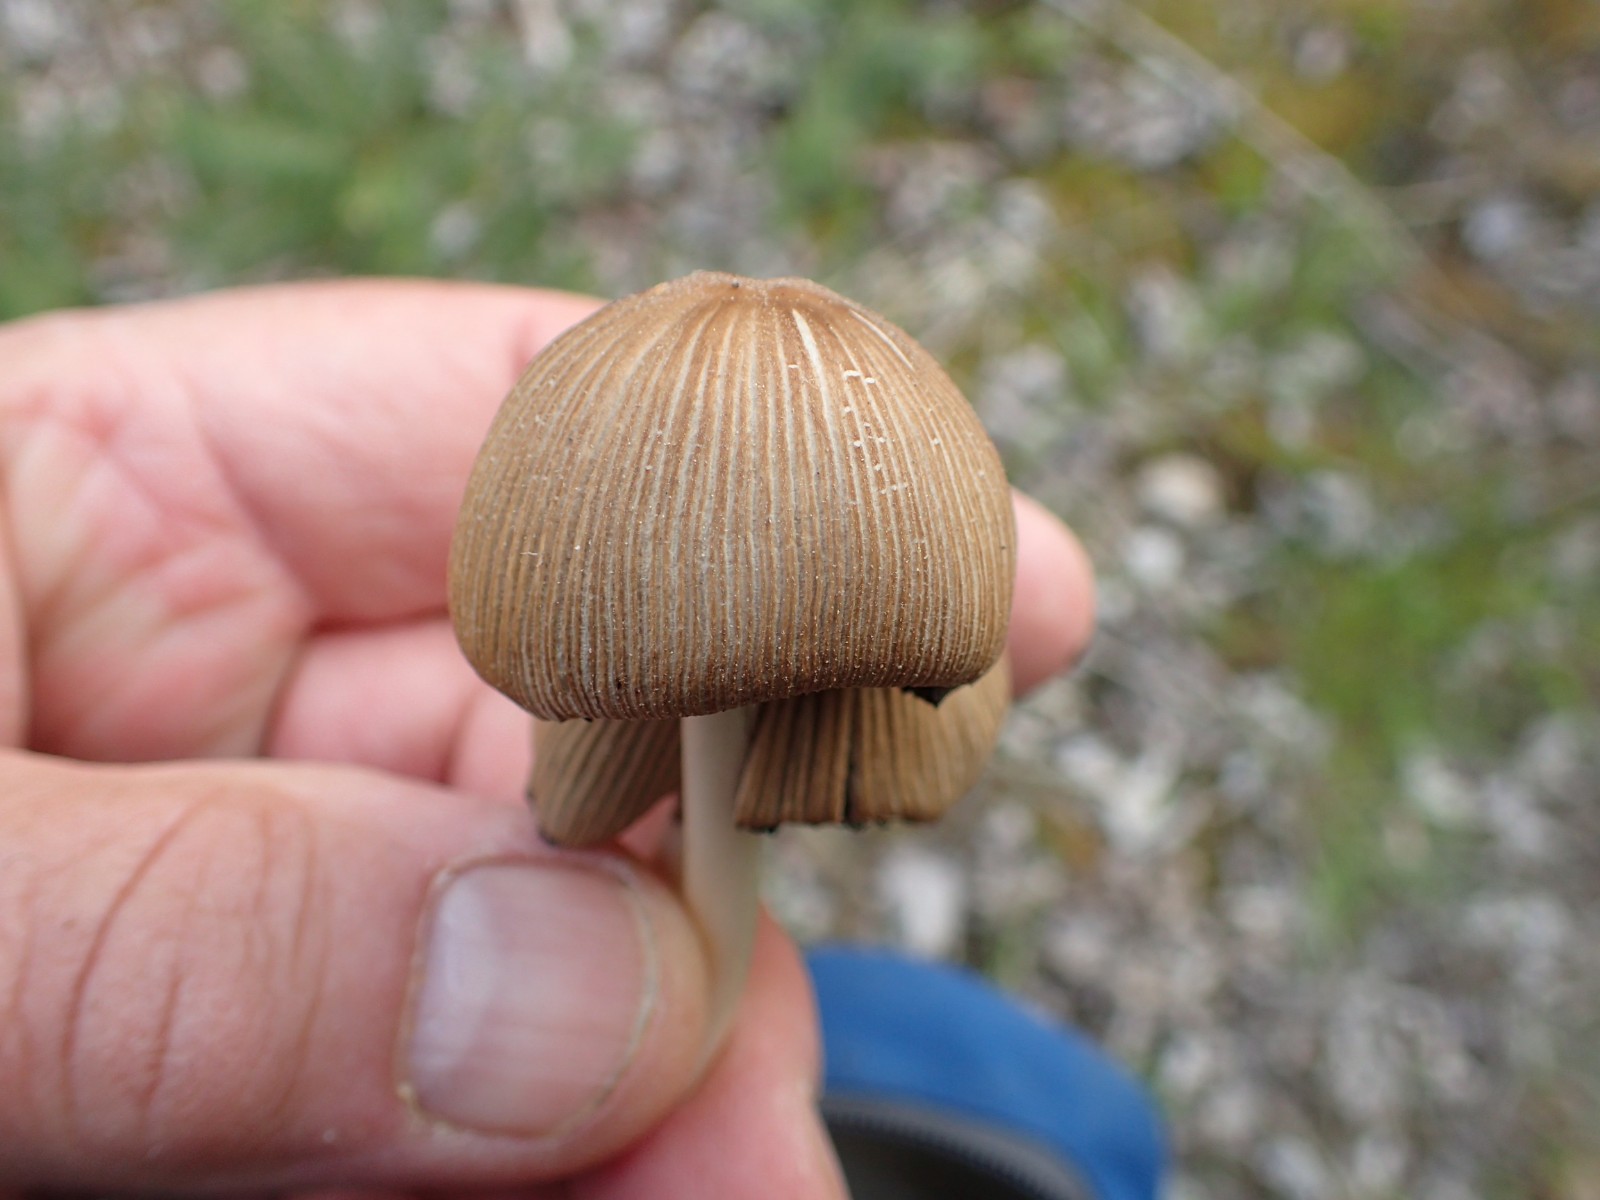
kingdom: Fungi
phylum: Basidiomycota
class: Agaricomycetes
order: Agaricales
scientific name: Agaricales
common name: champignonordenen
